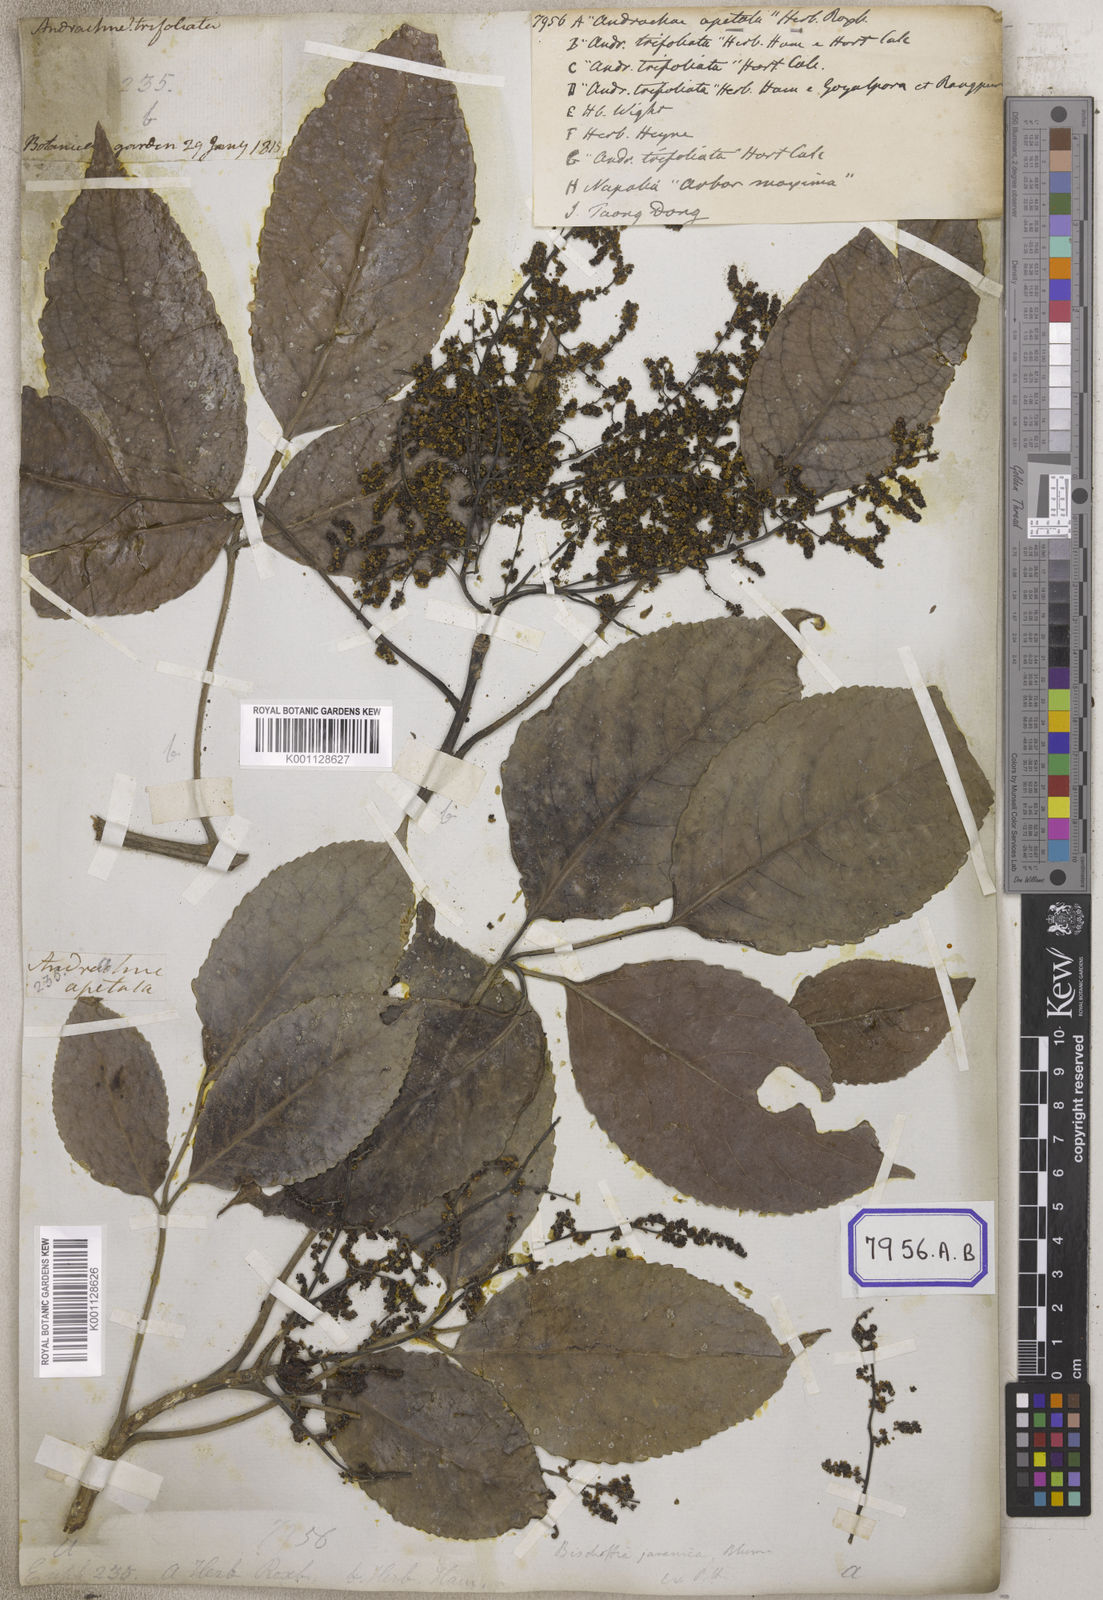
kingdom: Plantae
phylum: Tracheophyta
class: Magnoliopsida
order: Malpighiales
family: Euphorbiaceae
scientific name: Euphorbiaceae
